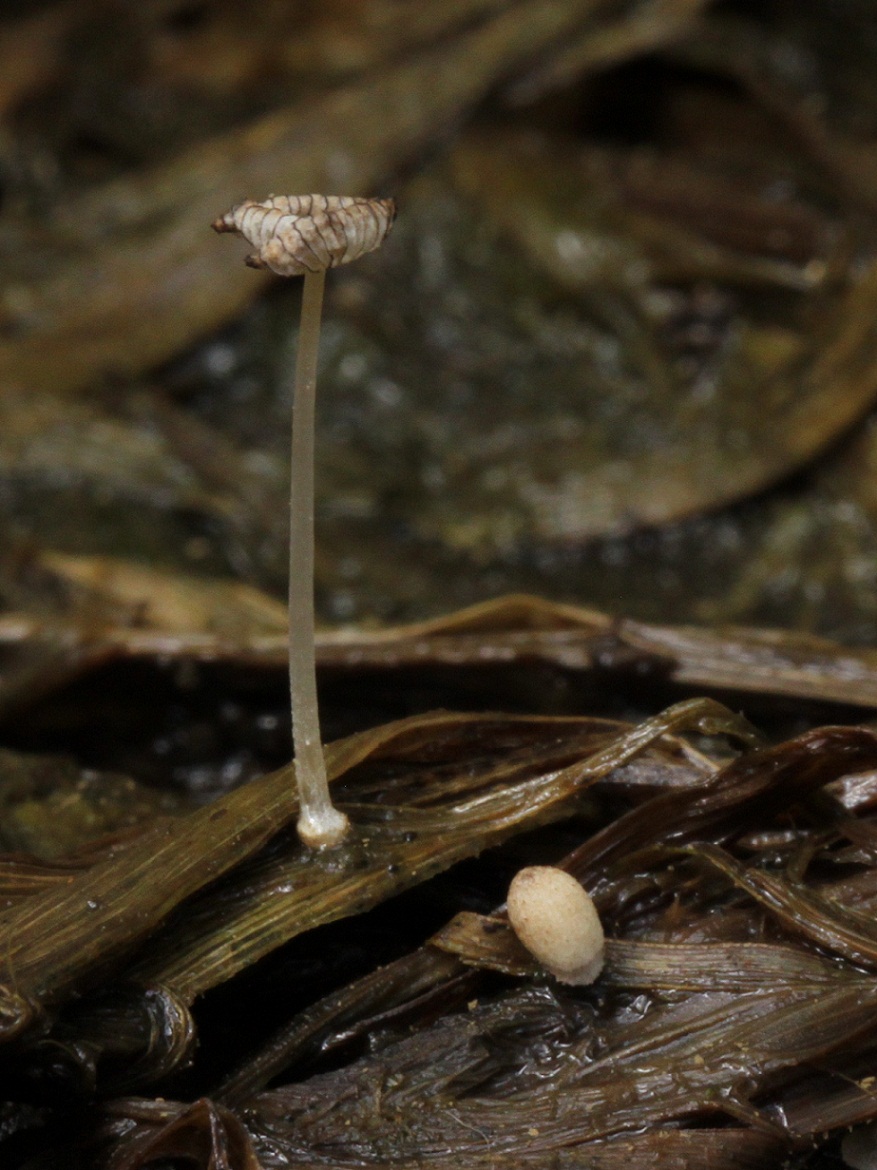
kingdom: Fungi
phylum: Basidiomycota
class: Agaricomycetes
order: Agaricales
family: Psathyrellaceae
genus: Coprinopsis
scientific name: Coprinopsis fluvialis
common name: dynd-blækhat
